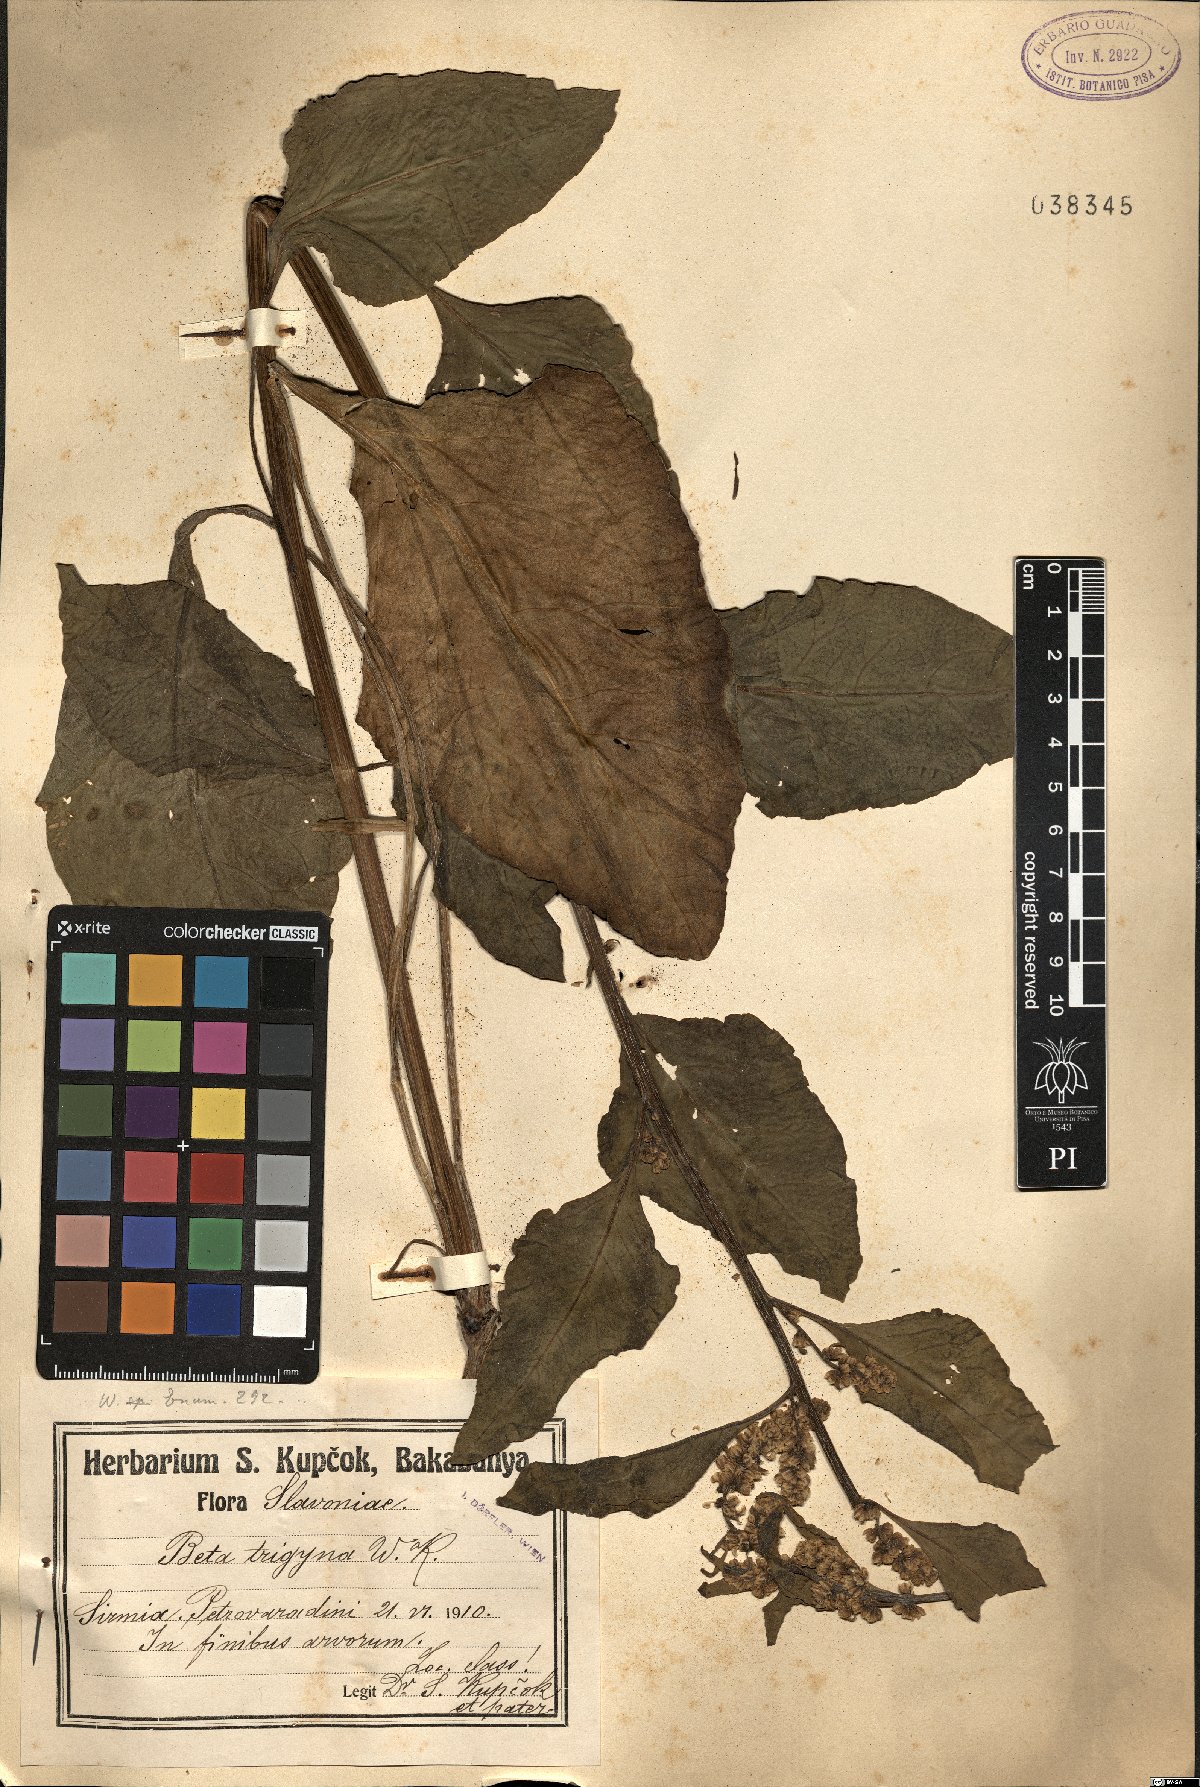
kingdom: Plantae
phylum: Tracheophyta
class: Magnoliopsida
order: Caryophyllales
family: Amaranthaceae
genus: Beta
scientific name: Beta trigyna
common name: Caucasian beet
